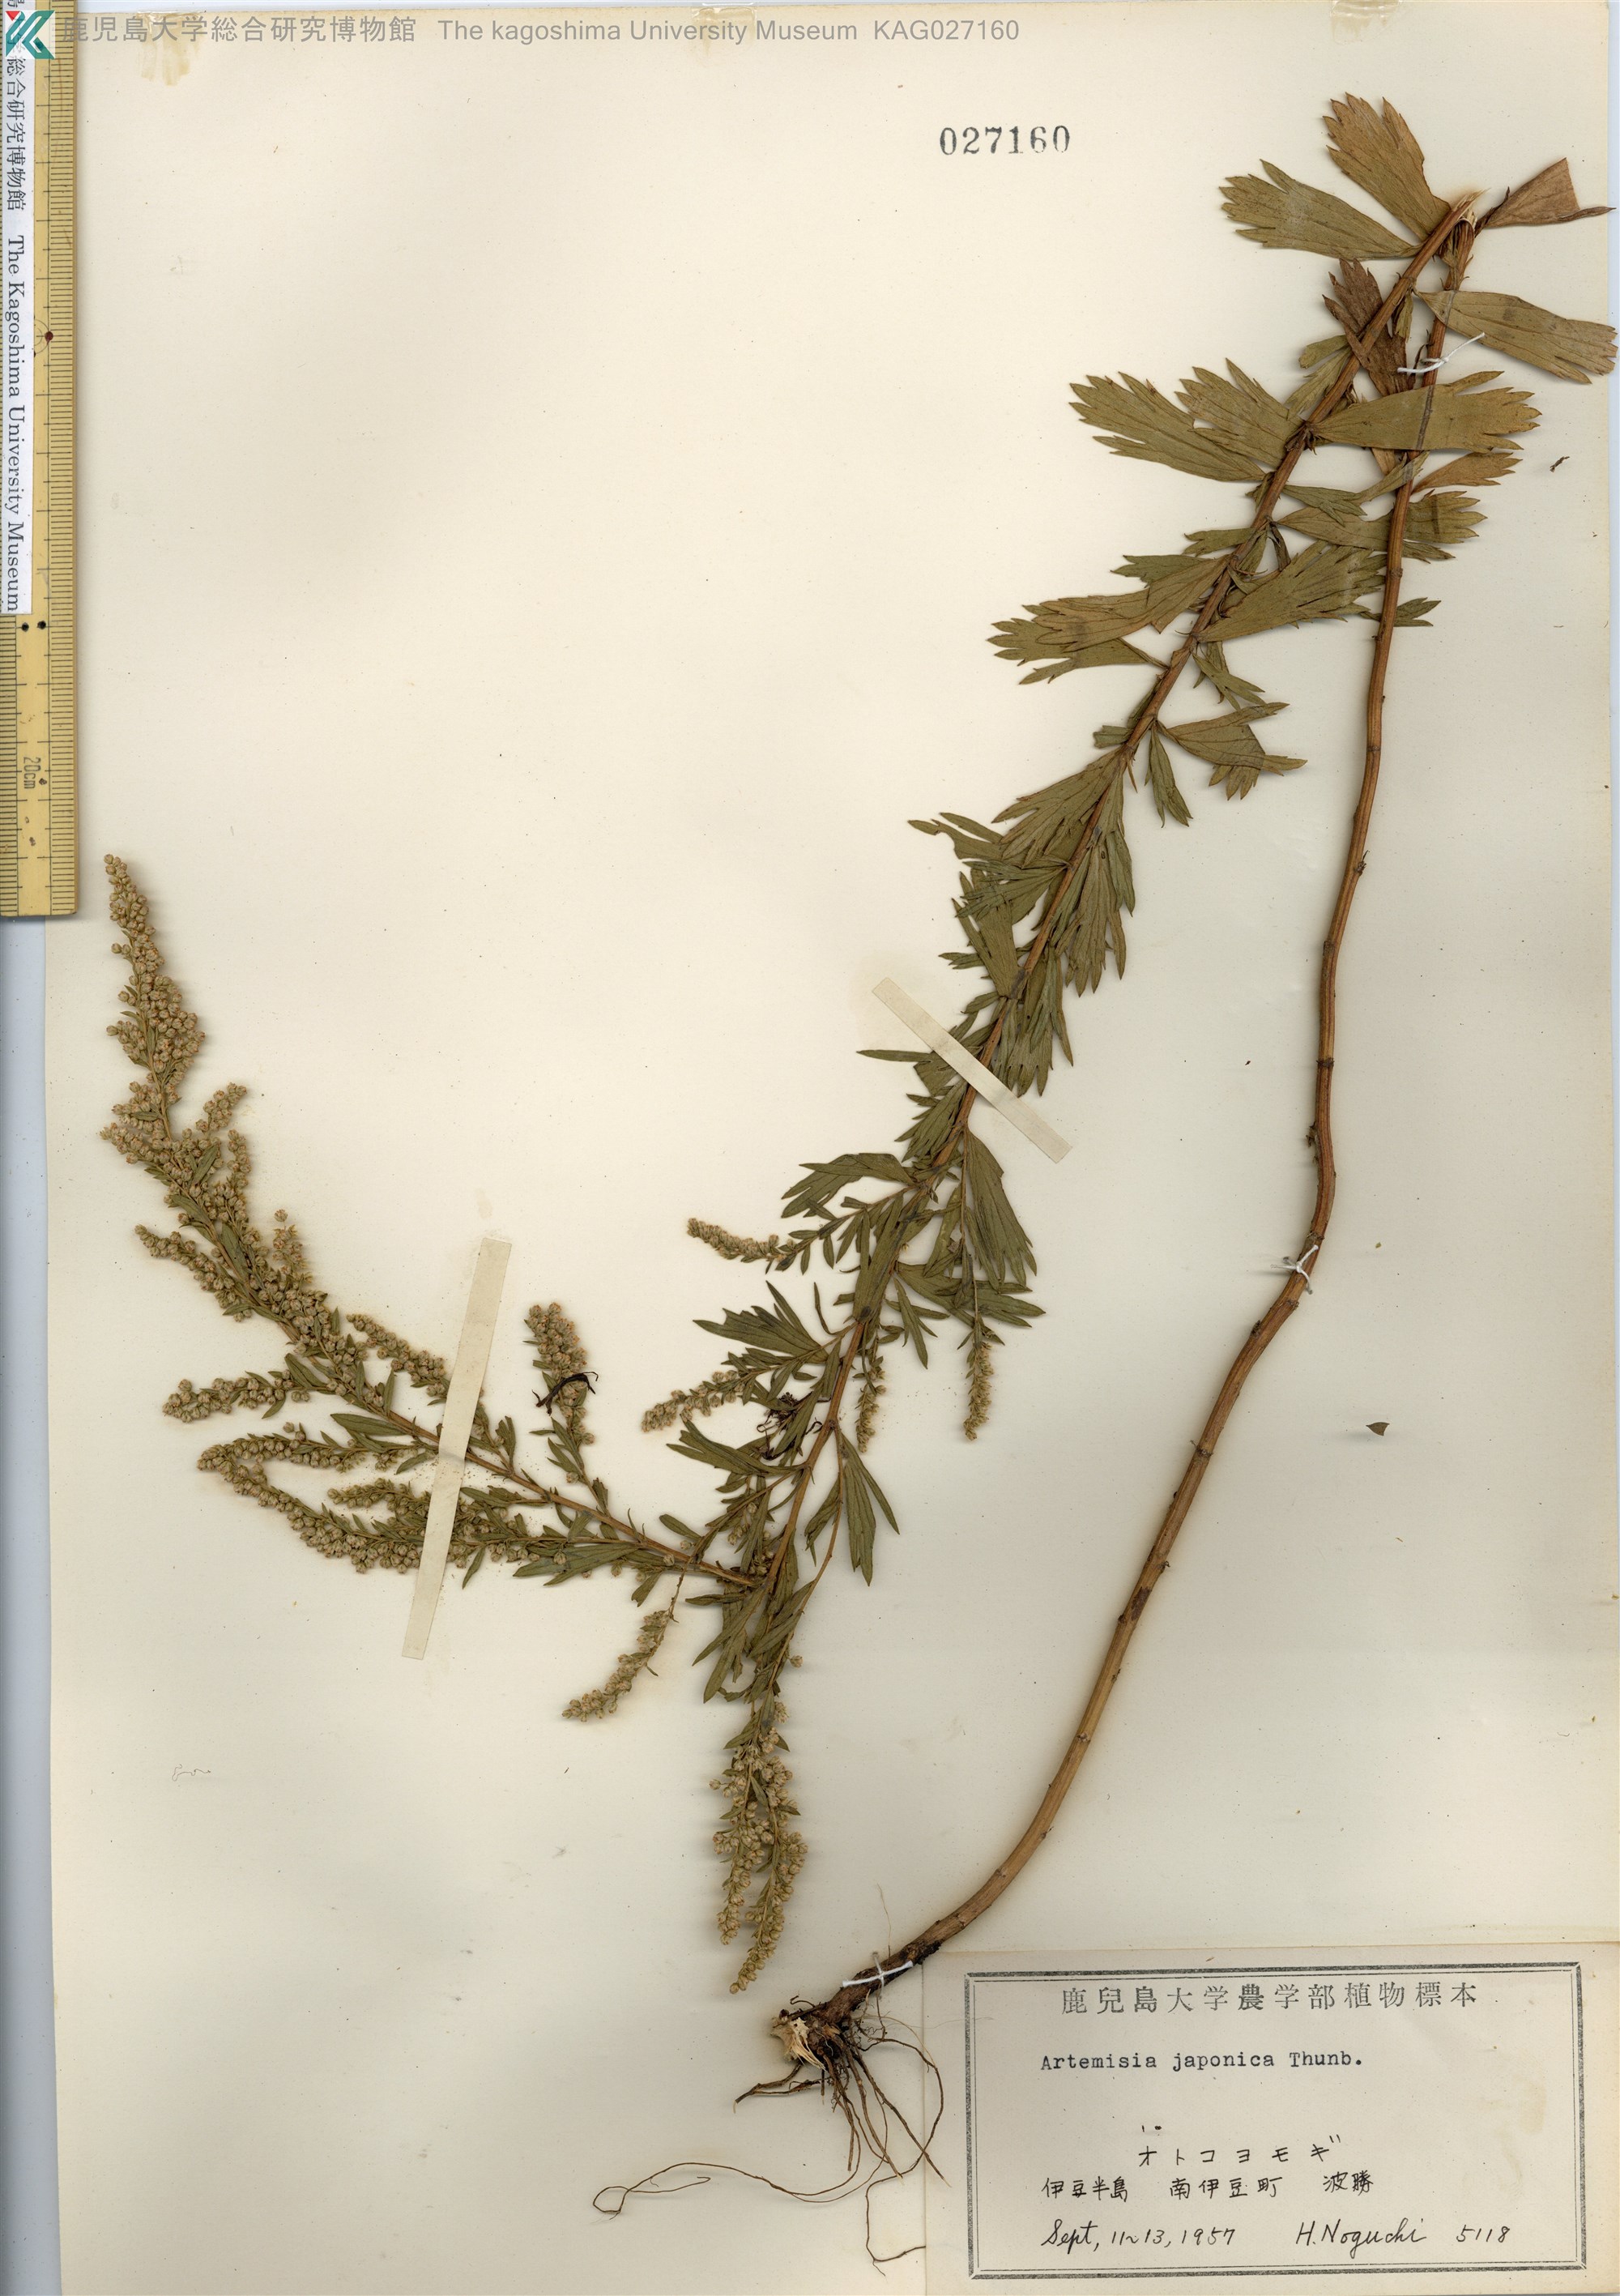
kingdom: Plantae
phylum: Tracheophyta
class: Magnoliopsida
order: Asterales
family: Asteraceae
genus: Artemisia
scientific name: Artemisia japonica
